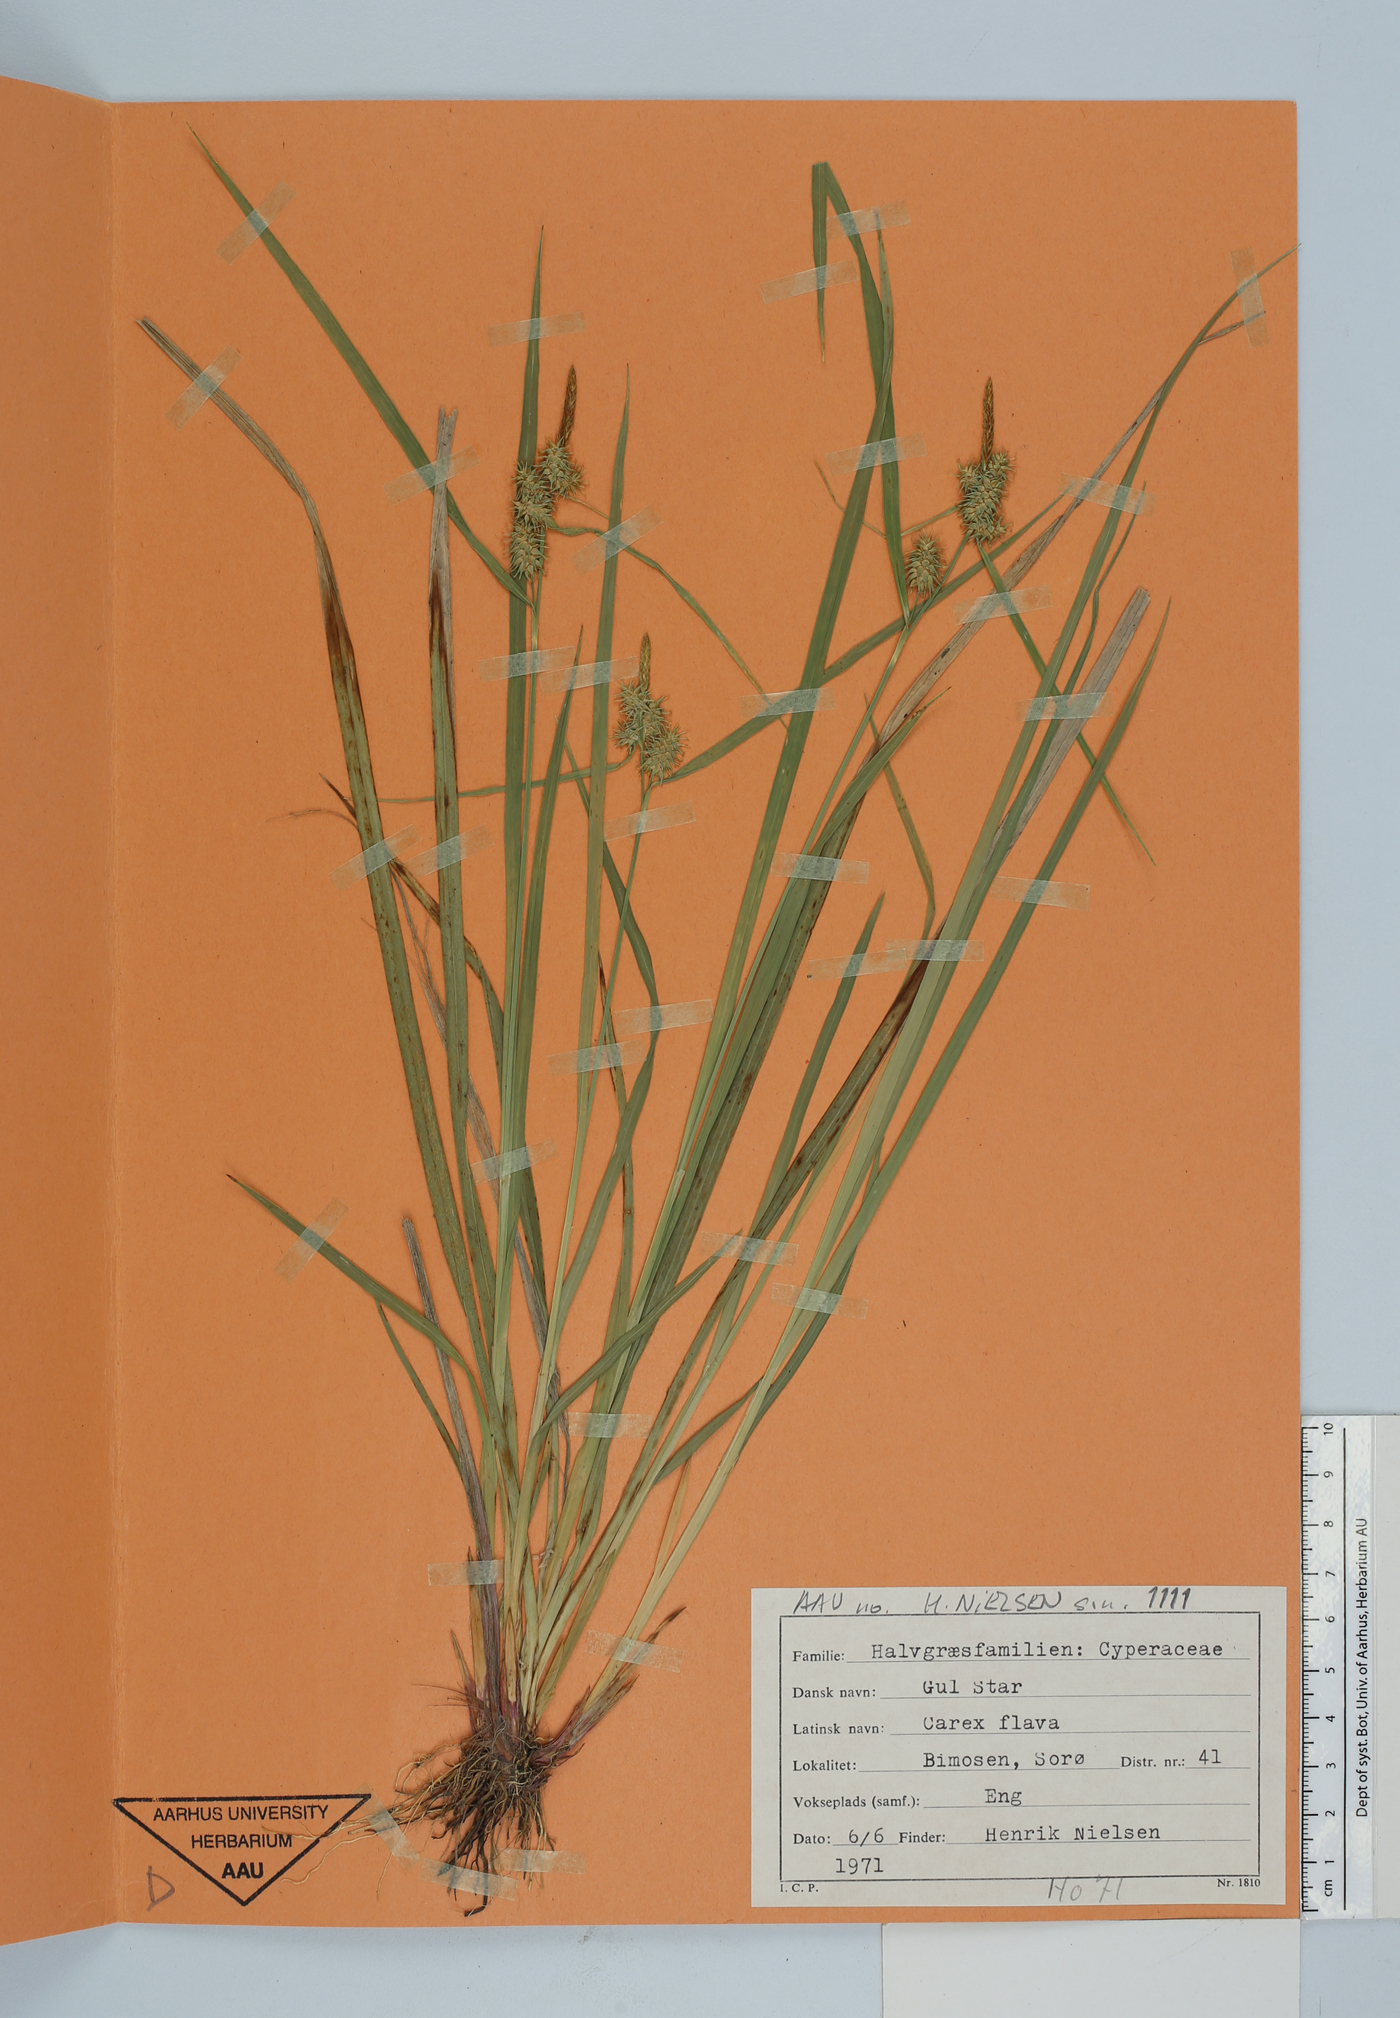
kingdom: Plantae
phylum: Tracheophyta
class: Liliopsida
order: Poales
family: Cyperaceae
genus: Carex
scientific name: Carex flava
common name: Large yellow-sedge
